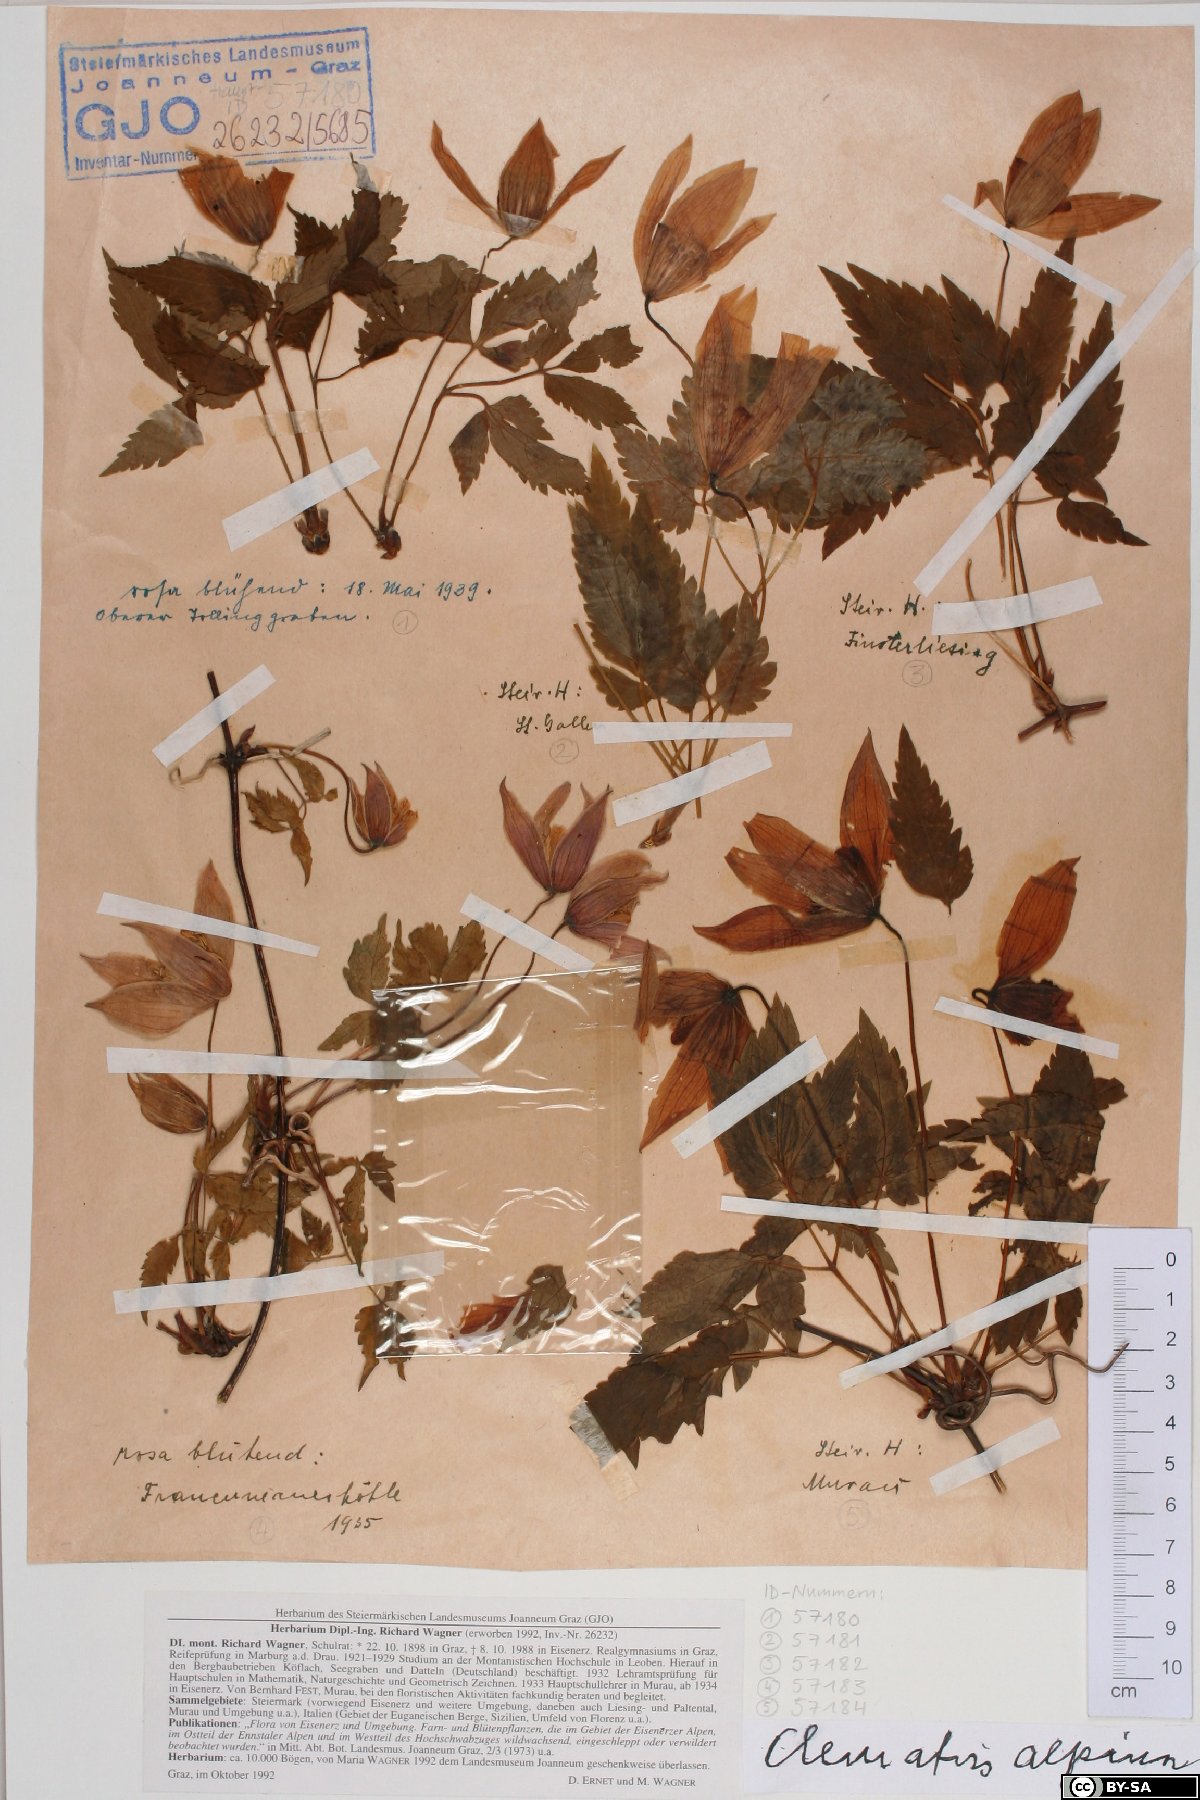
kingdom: Plantae
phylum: Tracheophyta
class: Magnoliopsida
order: Ranunculales
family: Ranunculaceae
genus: Clematis
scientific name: Clematis alpina
